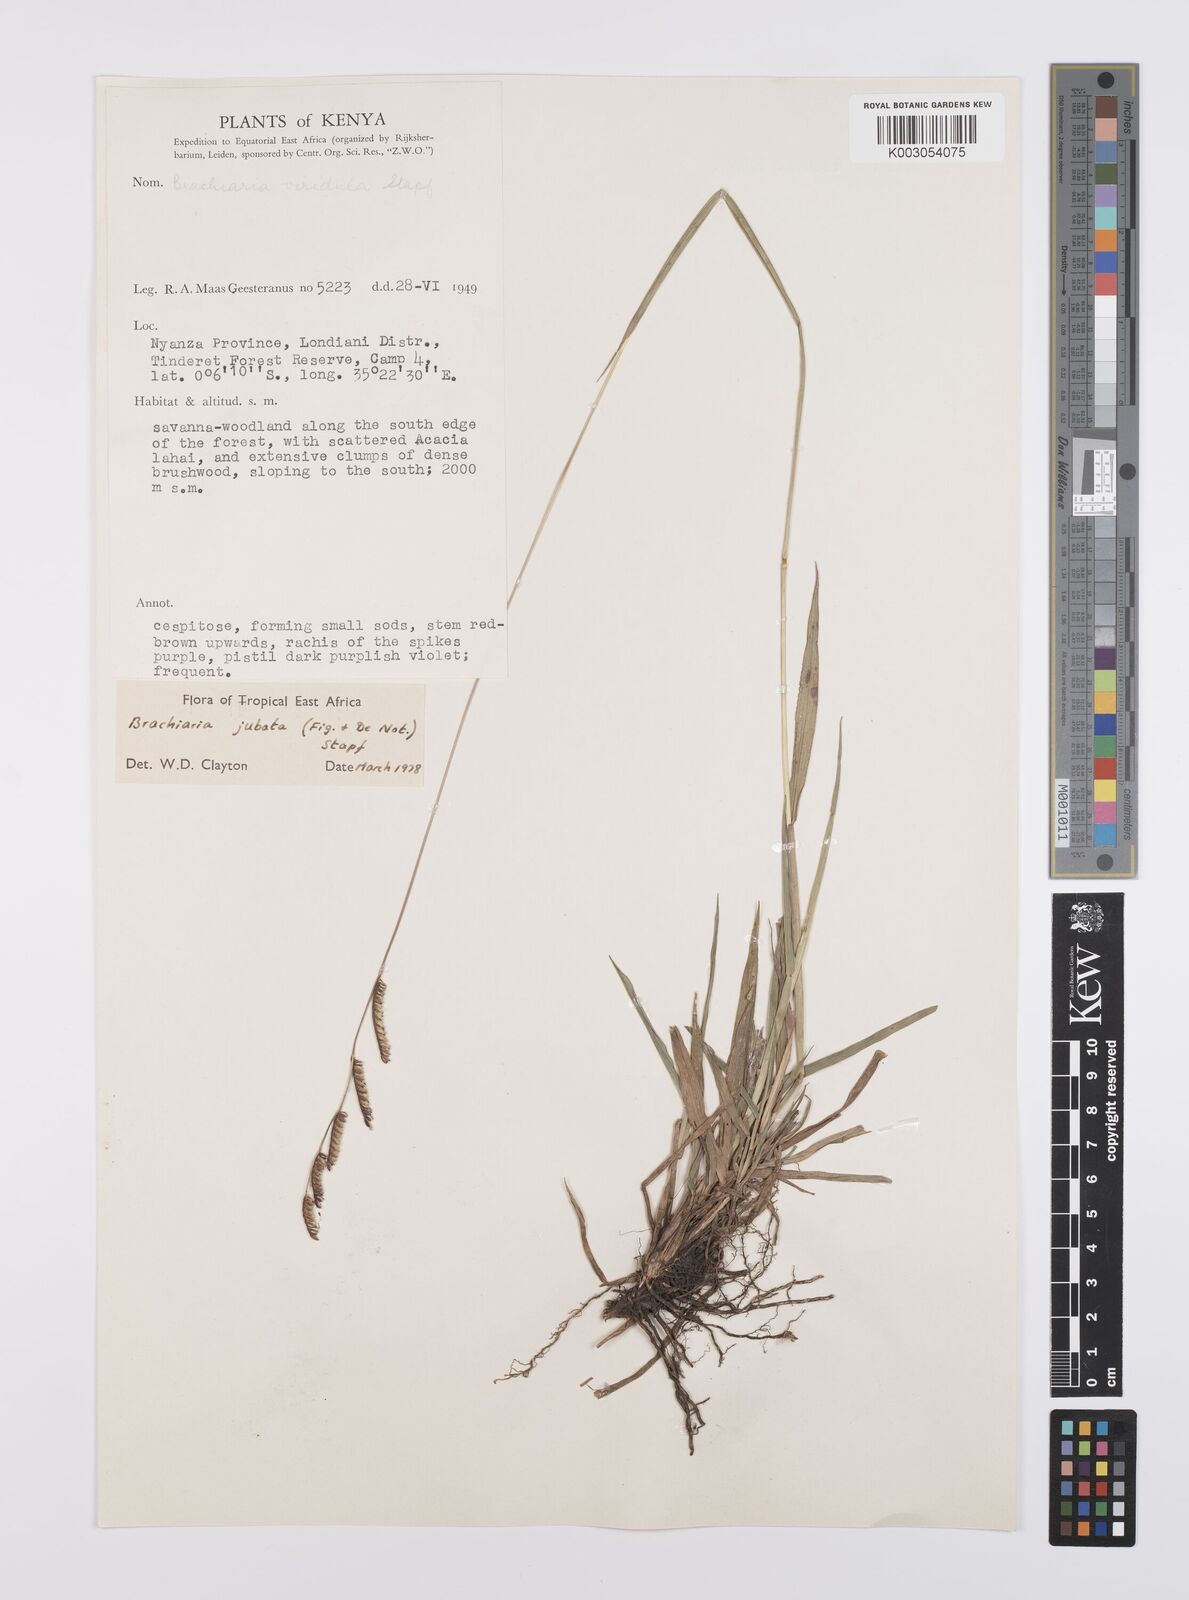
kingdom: Plantae
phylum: Tracheophyta
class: Liliopsida
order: Poales
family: Poaceae
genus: Urochloa
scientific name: Urochloa jubata
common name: Buffalograss
